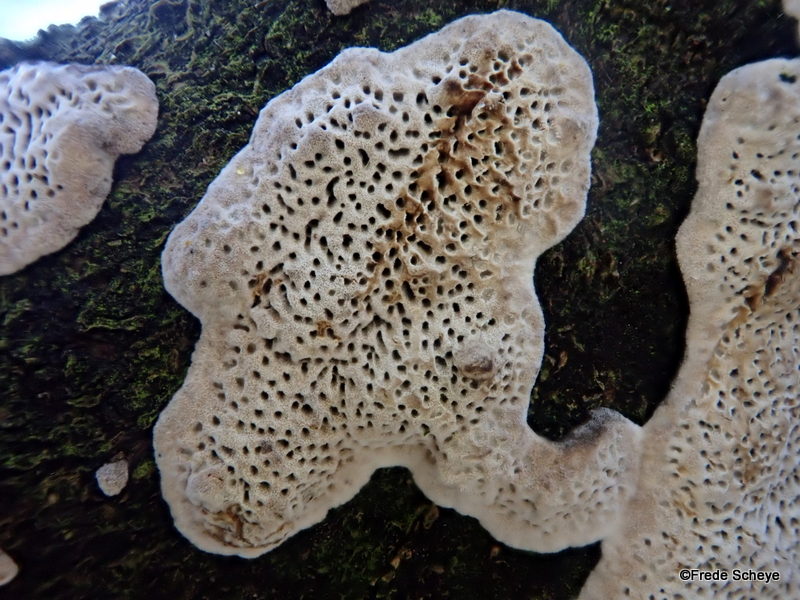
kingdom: Fungi
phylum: Basidiomycota
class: Agaricomycetes
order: Polyporales
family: Polyporaceae
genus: Podofomes
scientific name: Podofomes mollis
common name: blød begporesvamp
